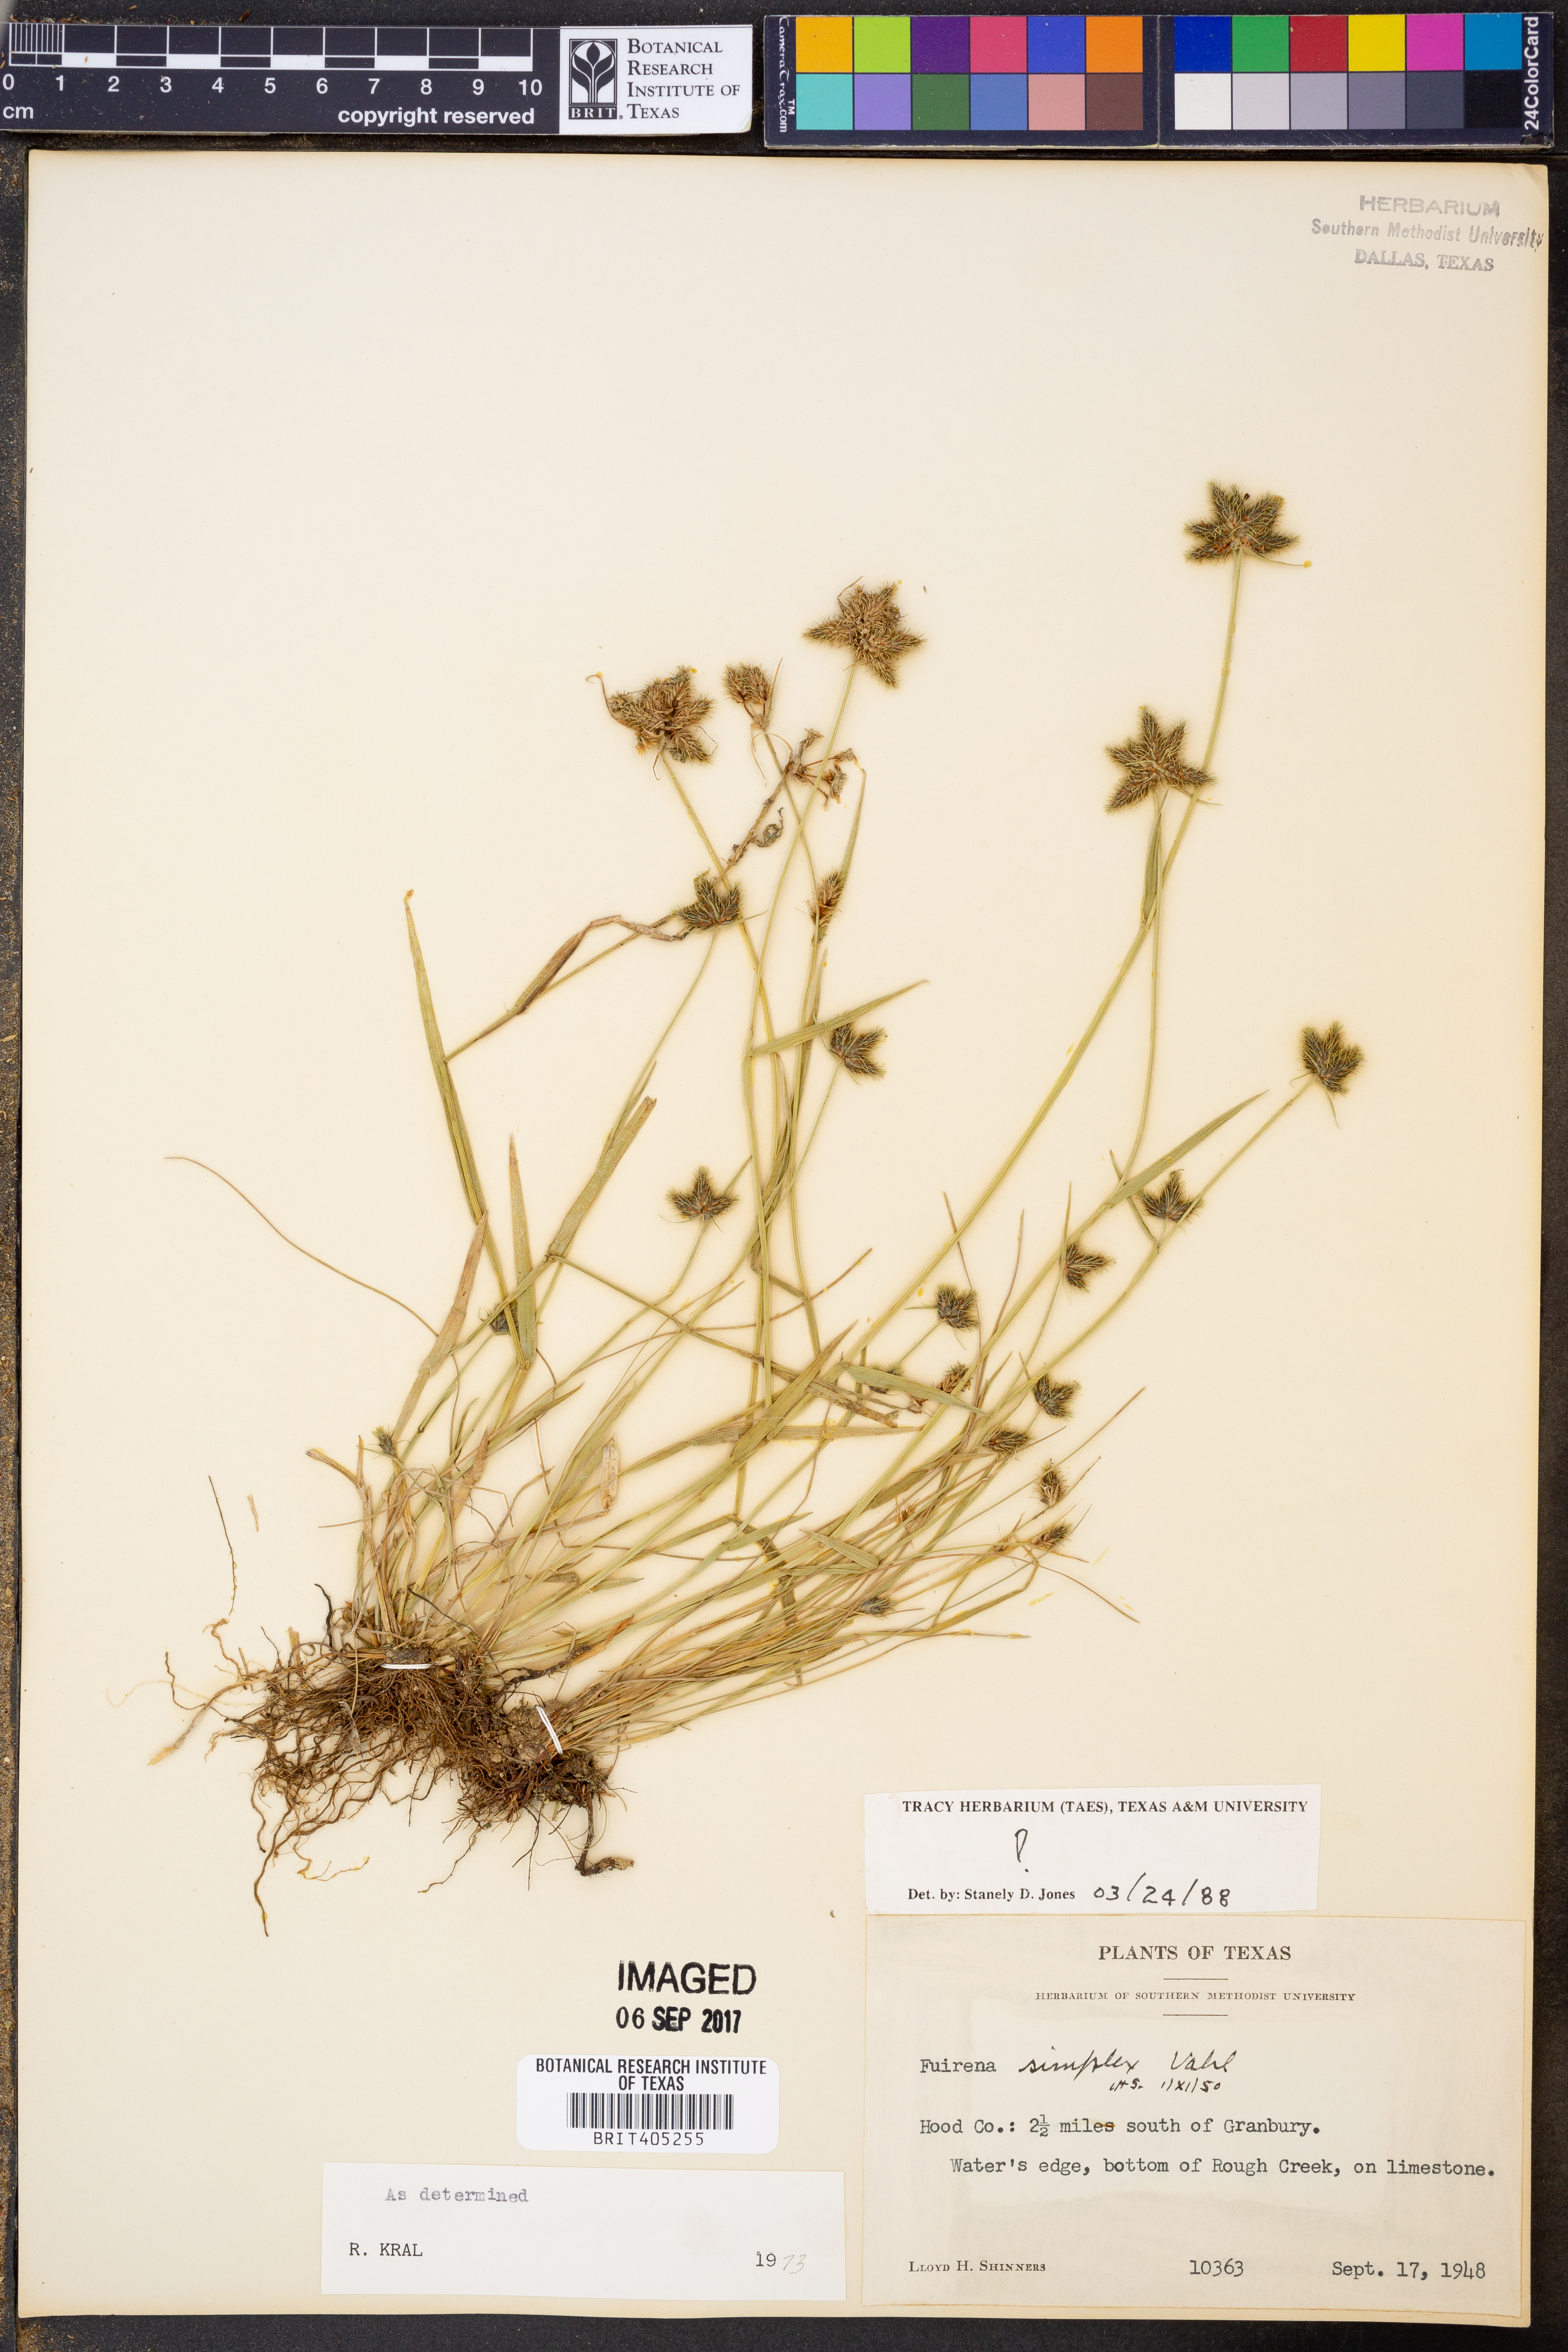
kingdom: Plantae
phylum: Tracheophyta
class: Liliopsida
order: Poales
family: Cyperaceae
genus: Fuirena
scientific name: Fuirena simplex
